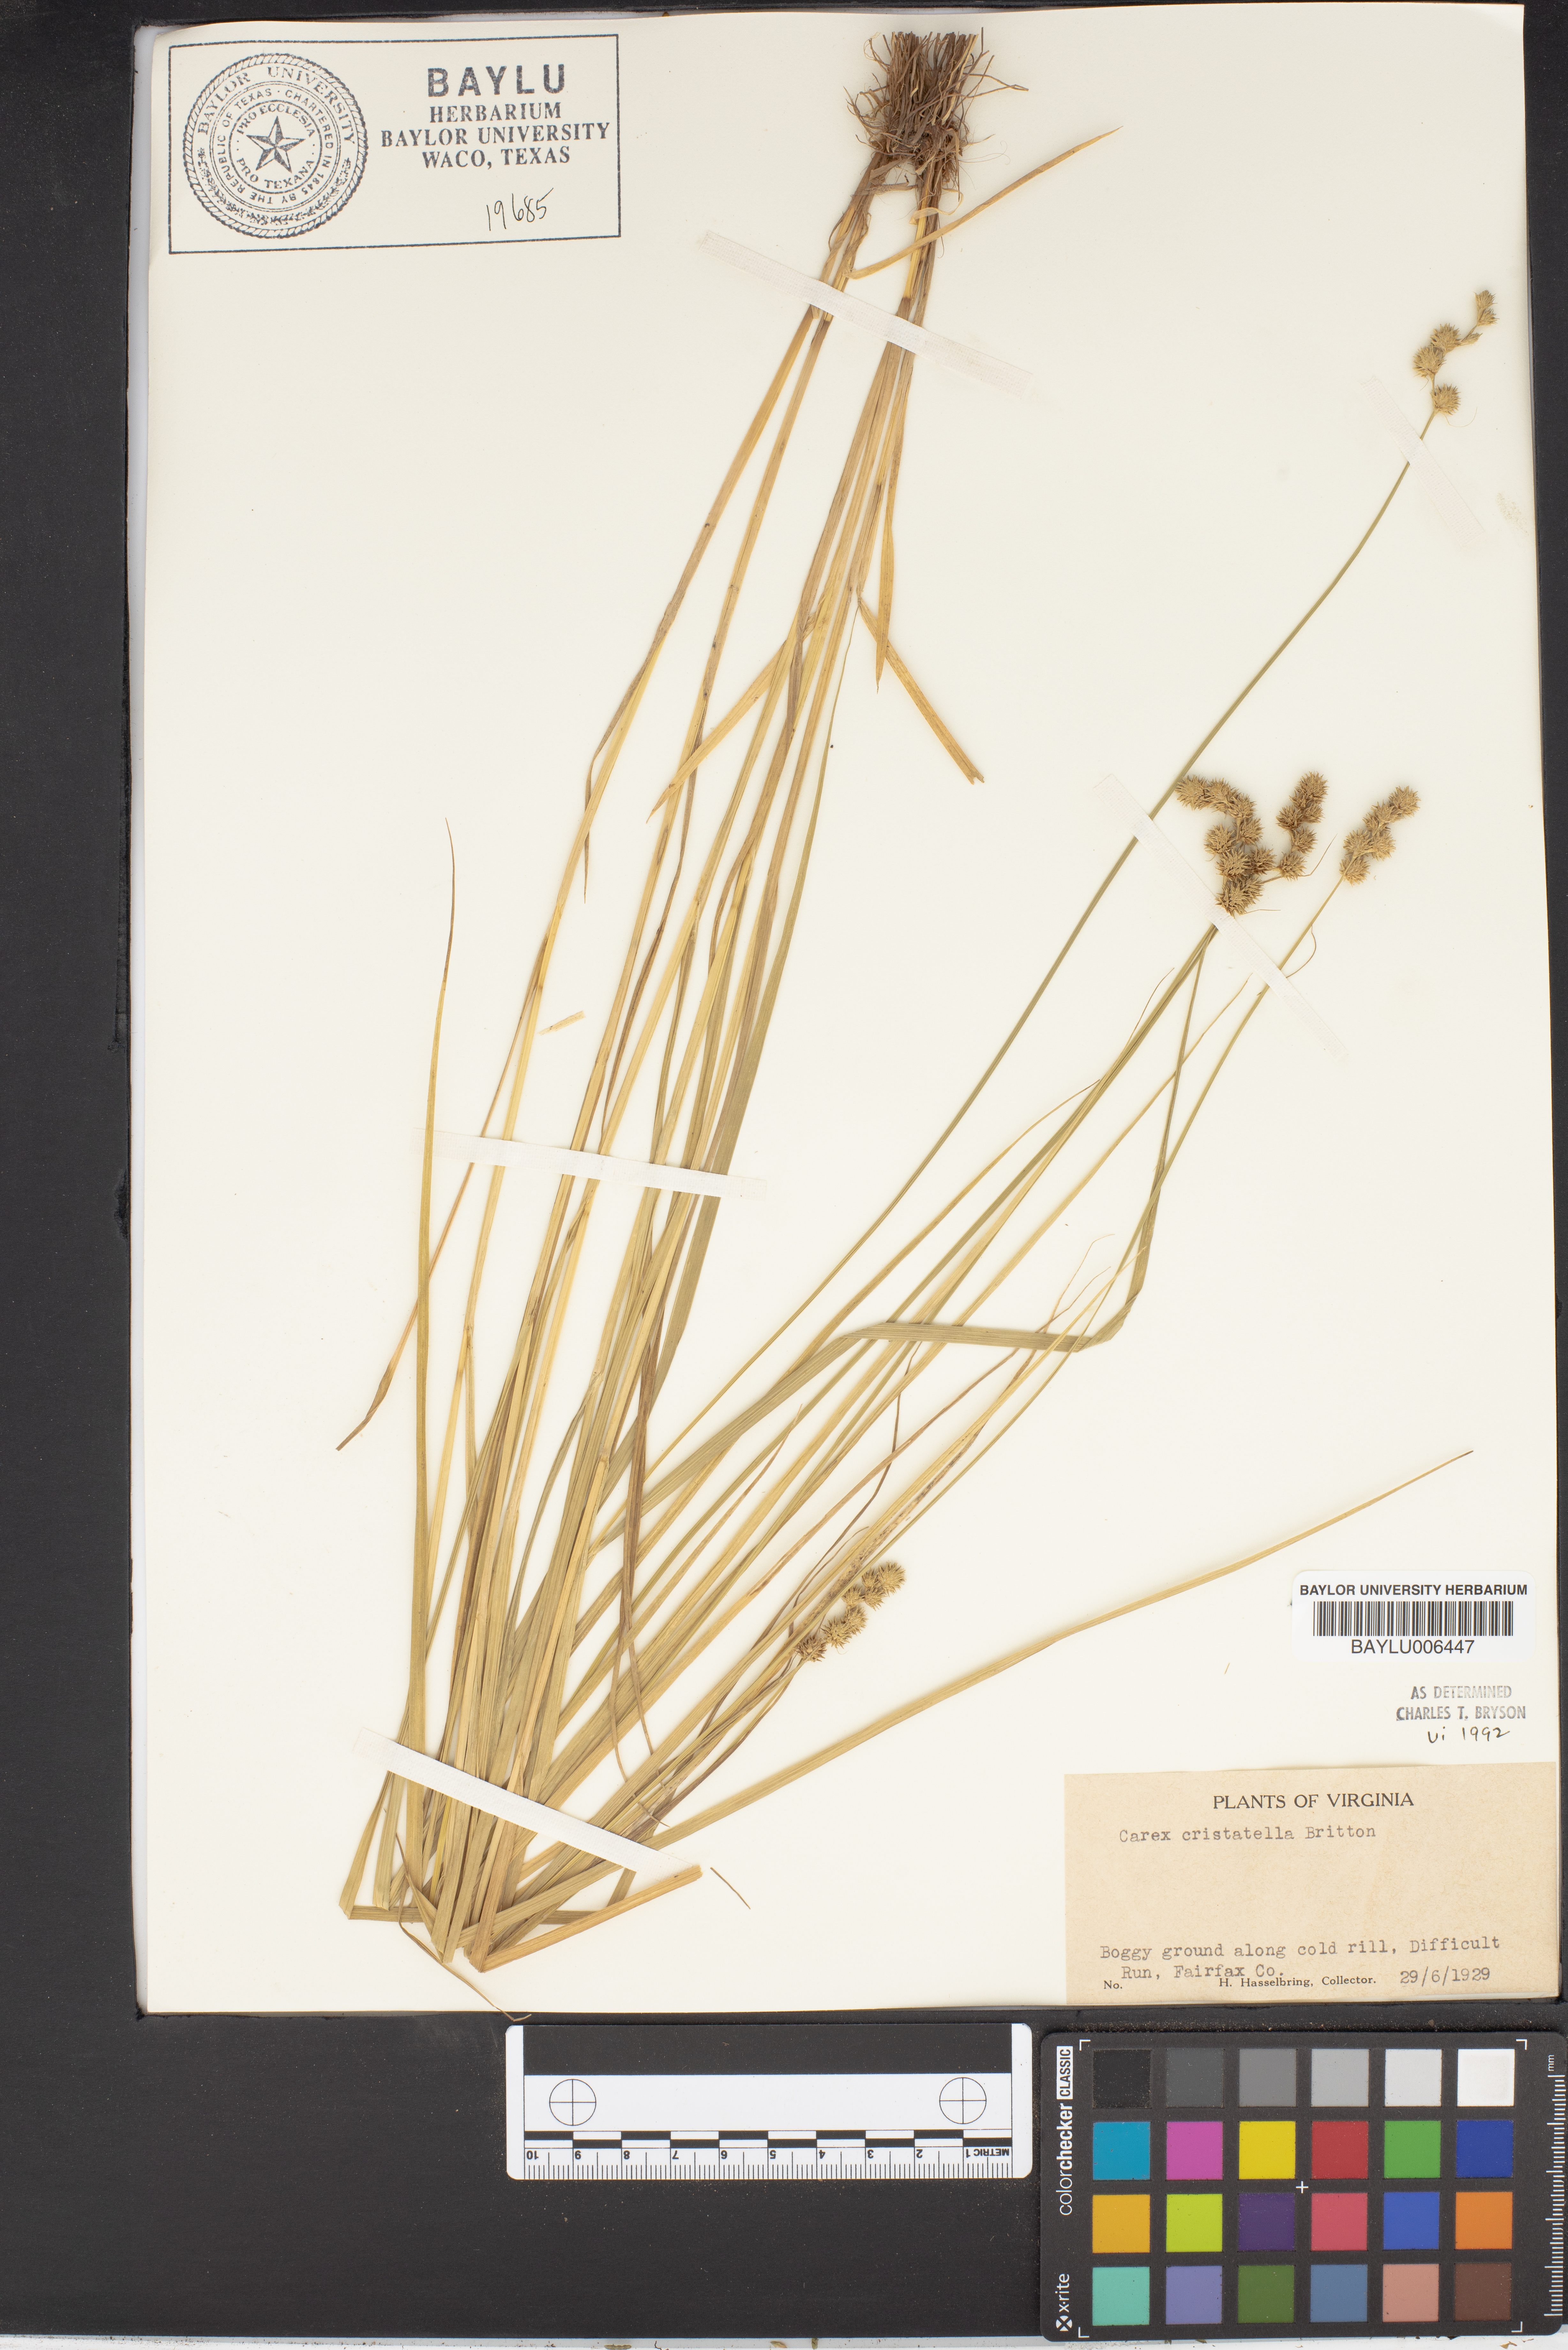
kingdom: Plantae
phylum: Tracheophyta
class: Liliopsida
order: Poales
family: Cyperaceae
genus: Carex
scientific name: Carex cristatella
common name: Crested oval sedge
